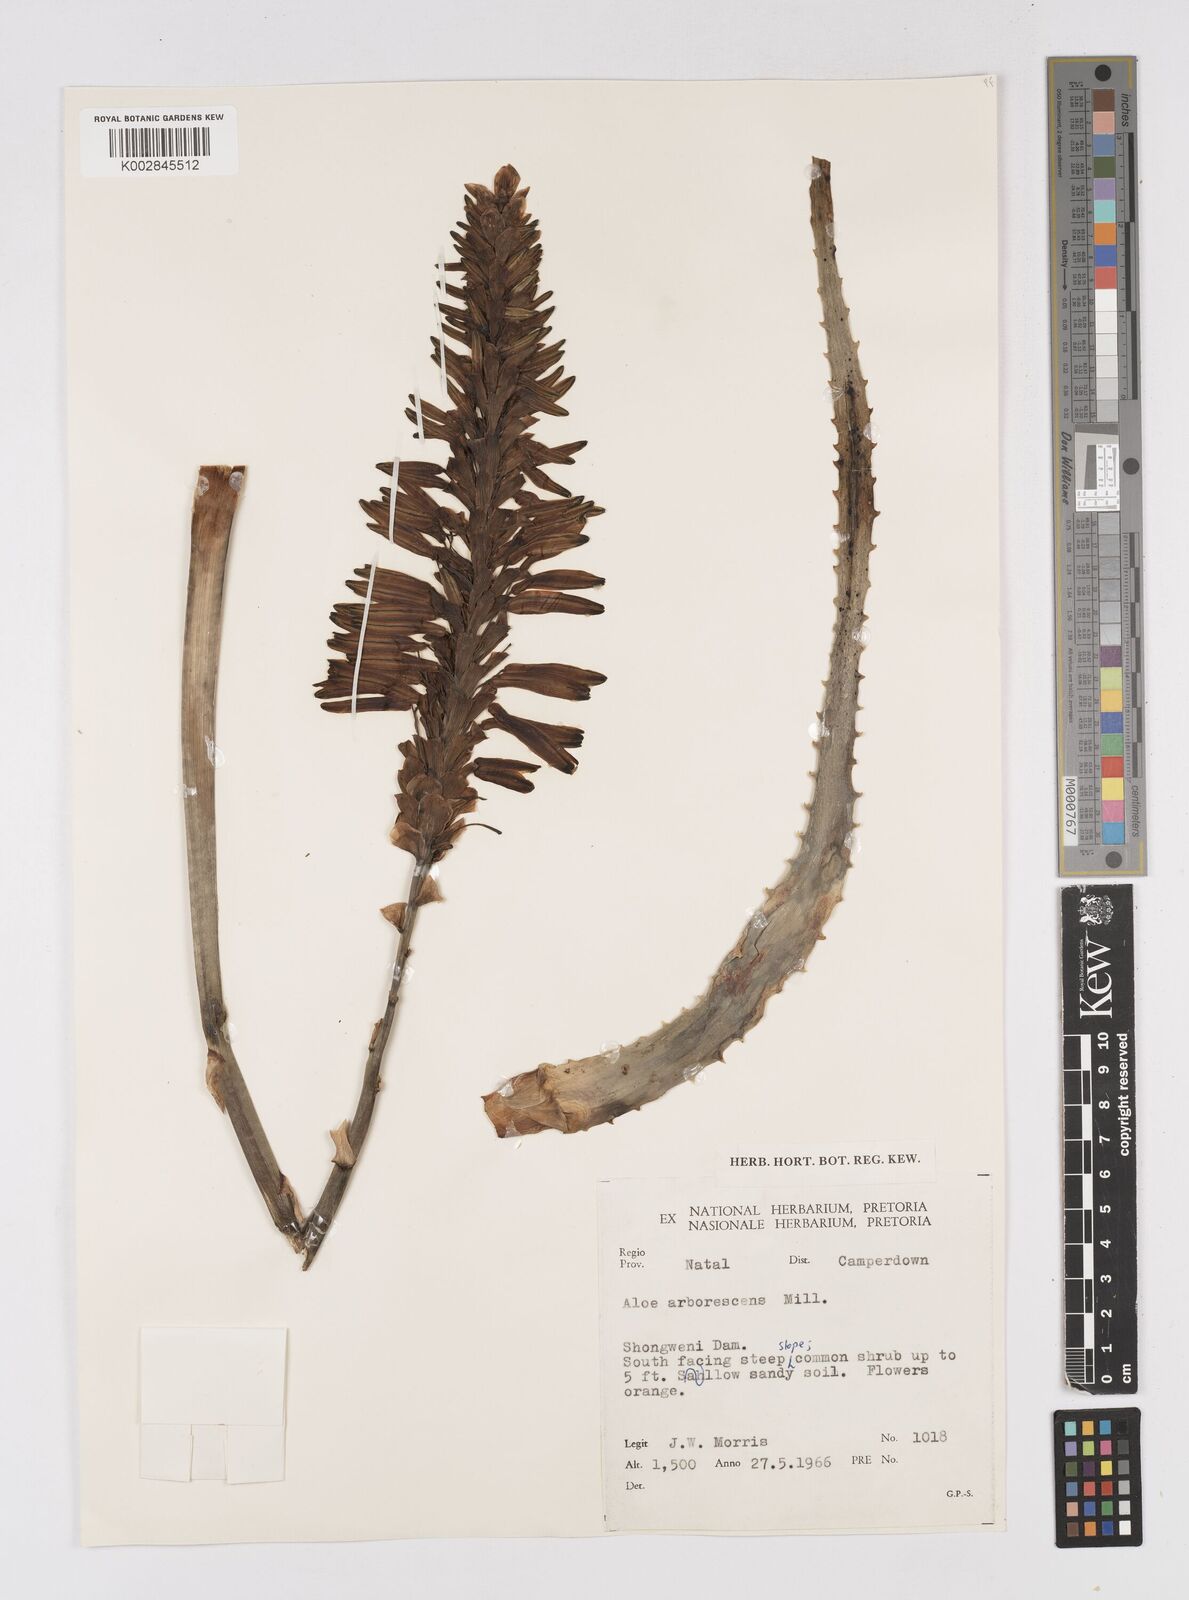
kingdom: Plantae
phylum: Tracheophyta
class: Liliopsida
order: Asparagales
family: Asphodelaceae
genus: Aloe
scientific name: Aloe arborescens
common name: Candelabra aloe
